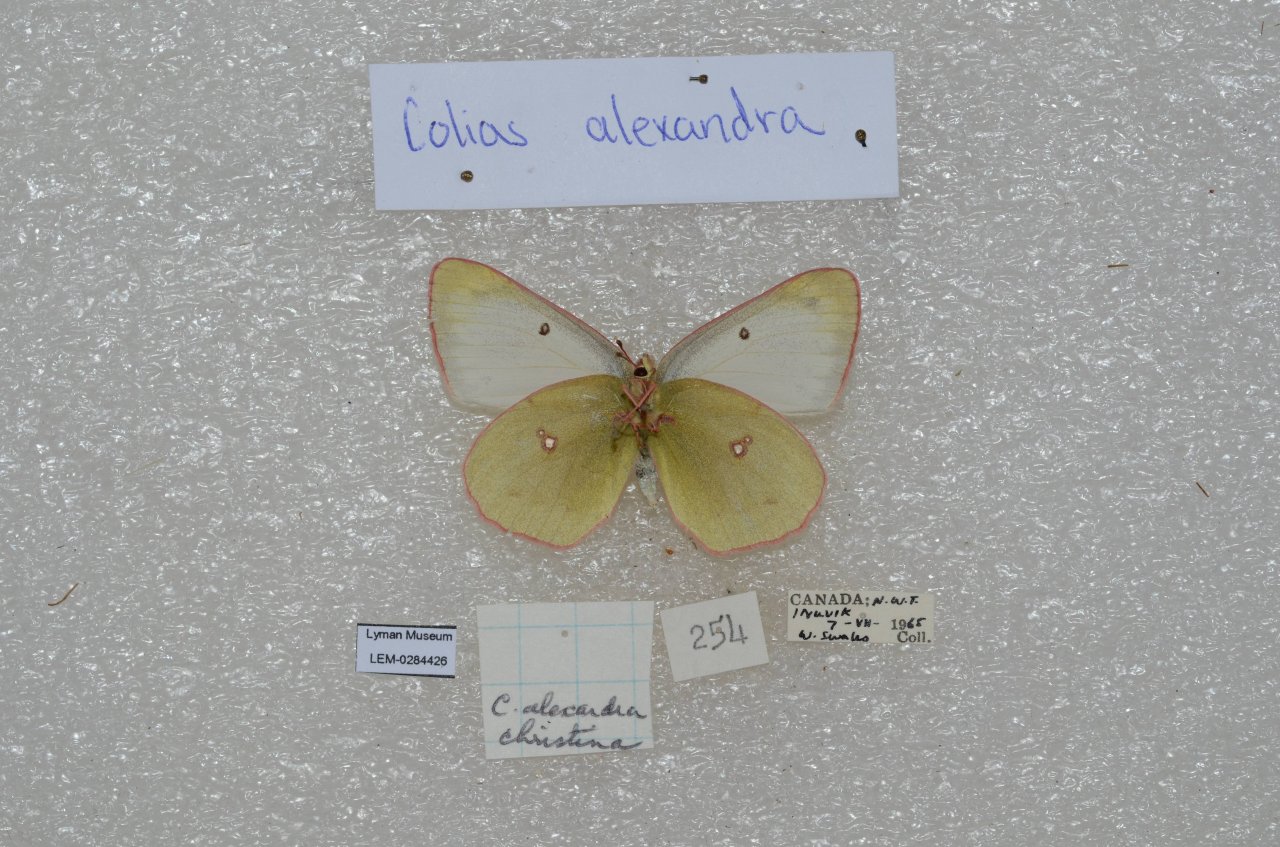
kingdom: Animalia
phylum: Arthropoda
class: Insecta
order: Lepidoptera
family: Pieridae
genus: Colias
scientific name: Colias pelidne
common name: Pelidne Sulphur
